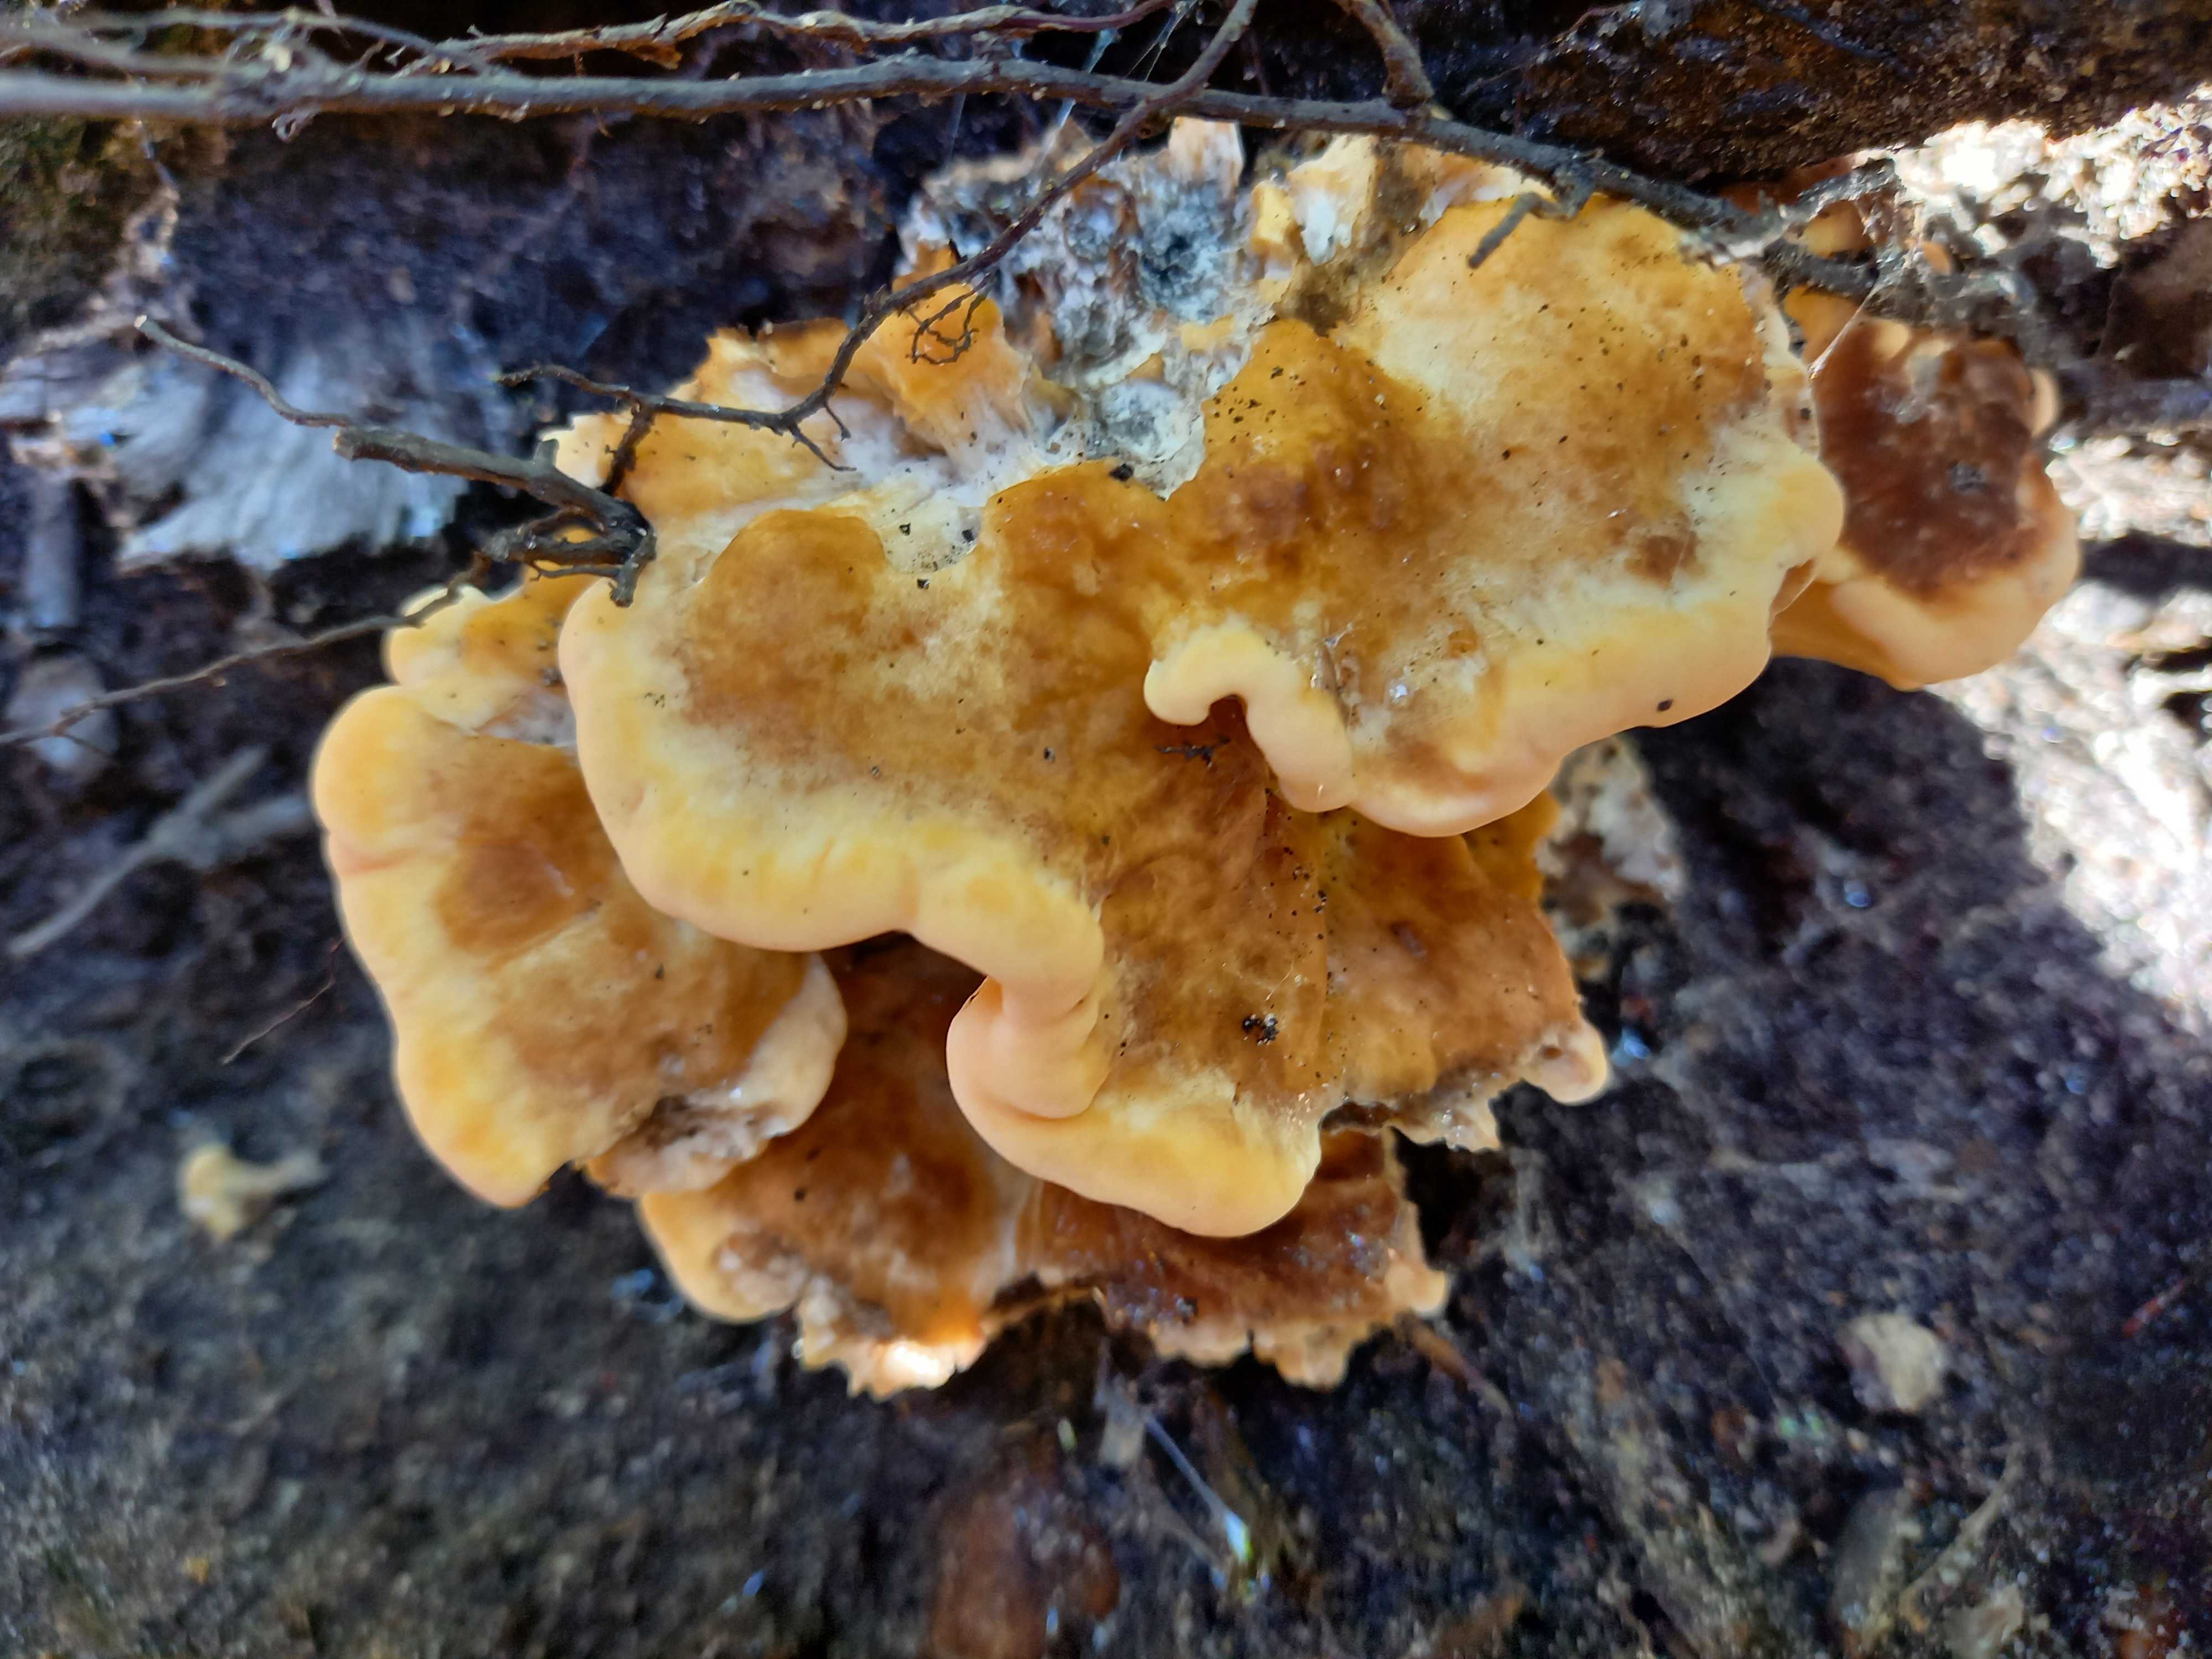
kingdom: Fungi
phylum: Basidiomycota
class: Agaricomycetes
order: Polyporales
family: Meripilaceae
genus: Meripilus
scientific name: Meripilus giganteus
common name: kæmpeporesvamp
